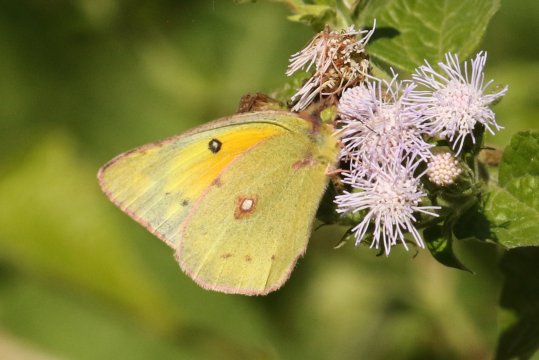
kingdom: Animalia
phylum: Arthropoda
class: Insecta
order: Lepidoptera
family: Pieridae
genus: Colias
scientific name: Colias eurytheme
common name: Orange Sulphur
